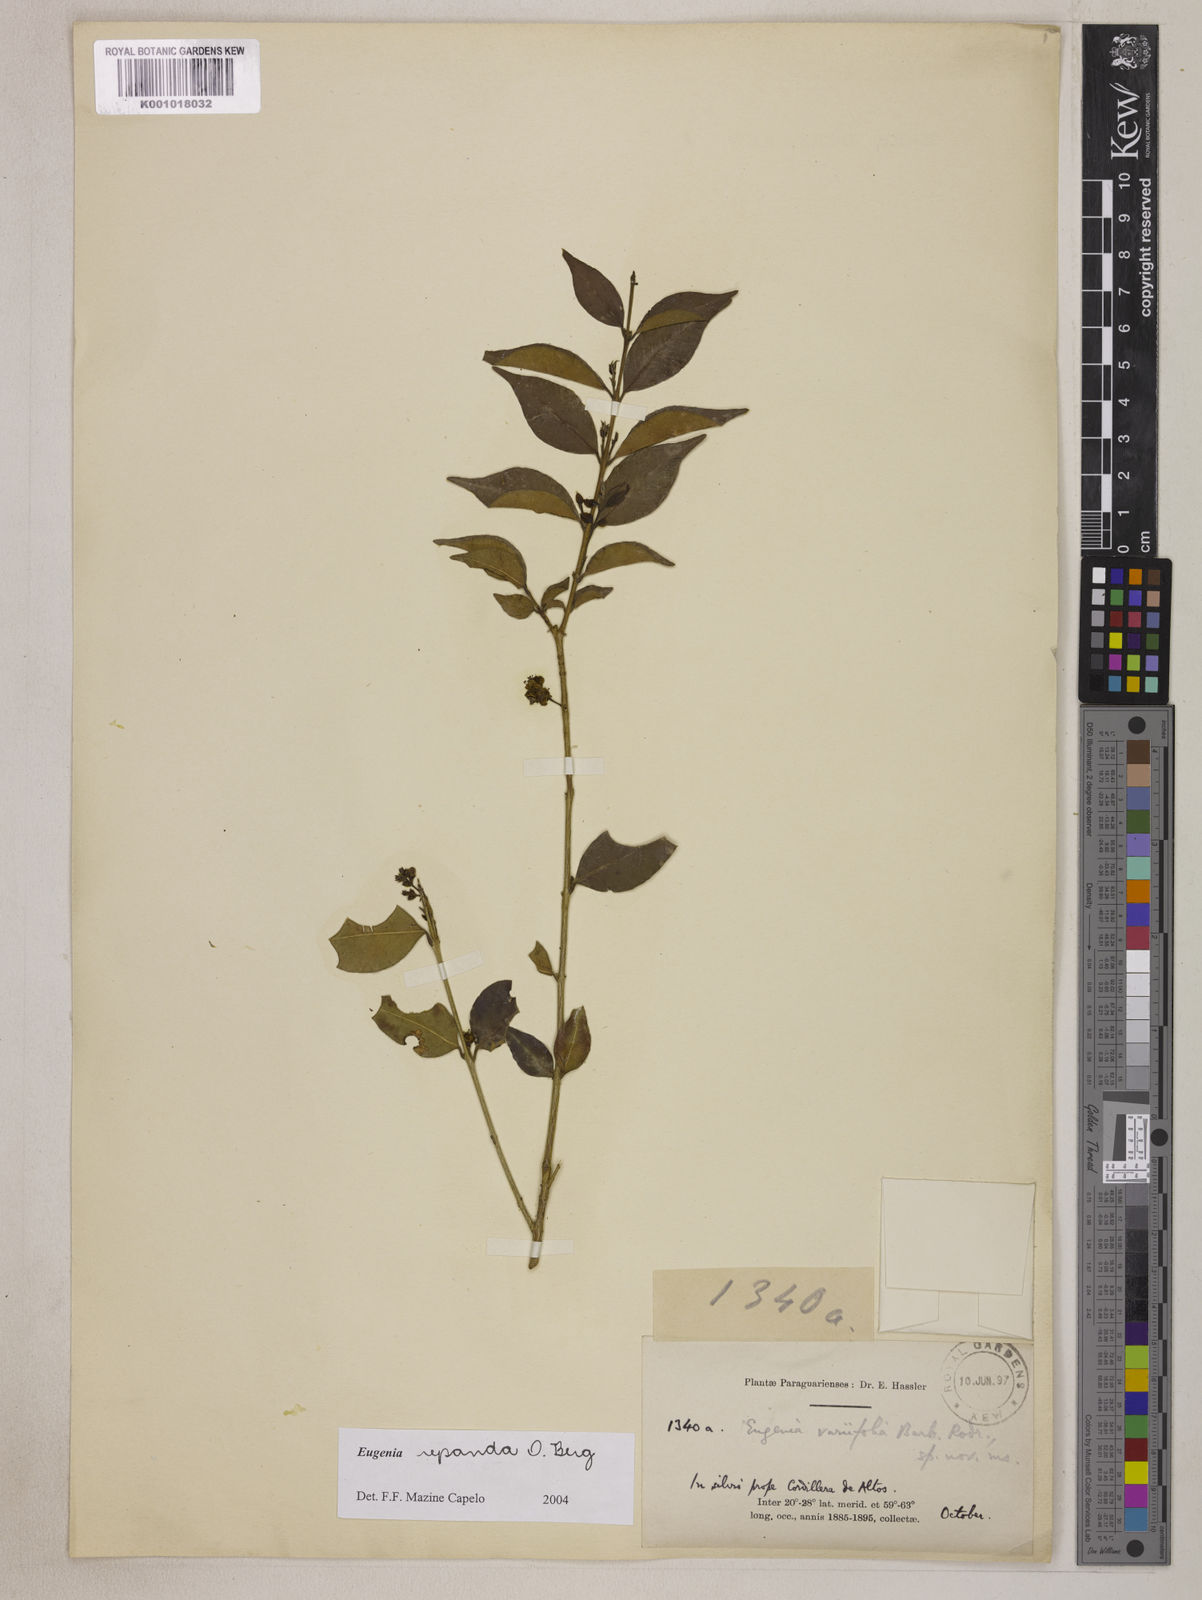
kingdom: Plantae
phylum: Tracheophyta
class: Magnoliopsida
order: Myrtales
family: Myrtaceae
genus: Eugenia
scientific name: Eugenia repanda
